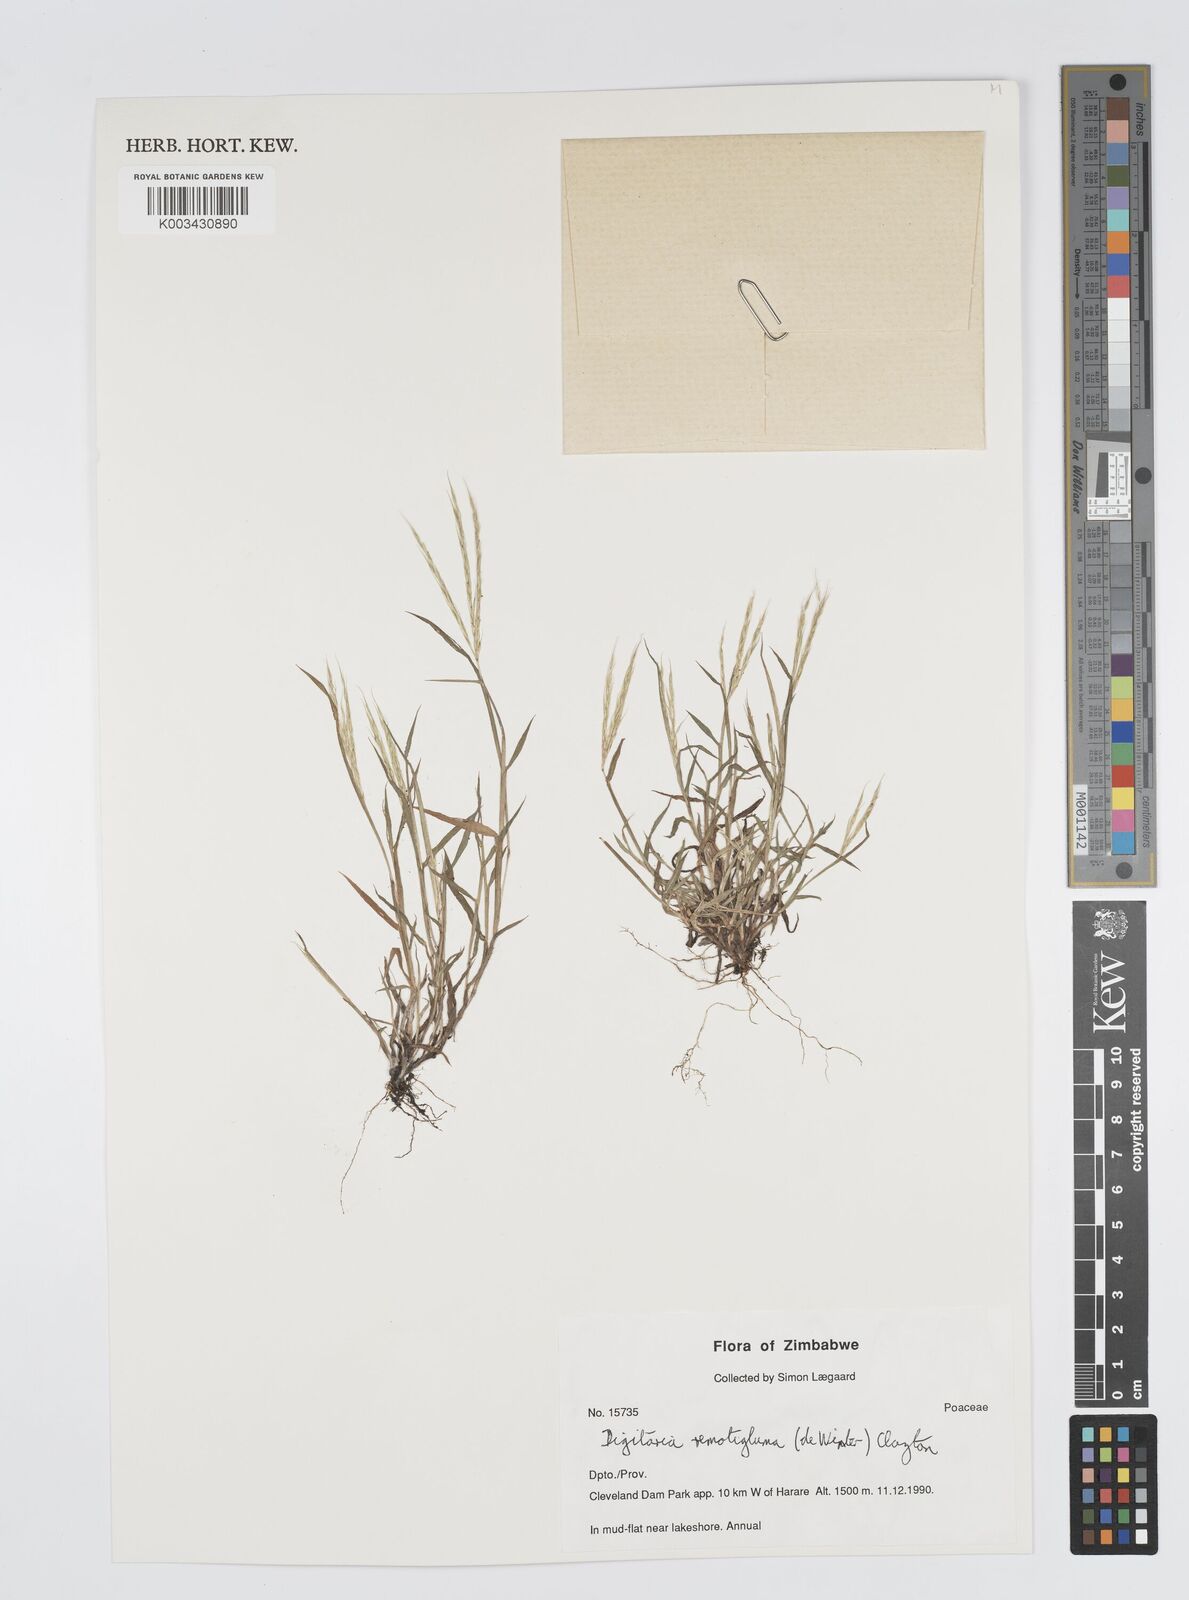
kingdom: Plantae
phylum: Tracheophyta
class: Liliopsida
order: Poales
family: Poaceae
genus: Digitaria
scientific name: Digitaria remotigluma
